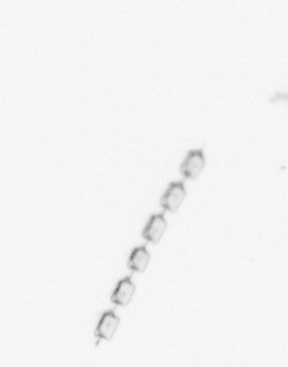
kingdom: Chromista
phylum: Ochrophyta
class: Bacillariophyceae
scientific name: Bacillariophyceae
